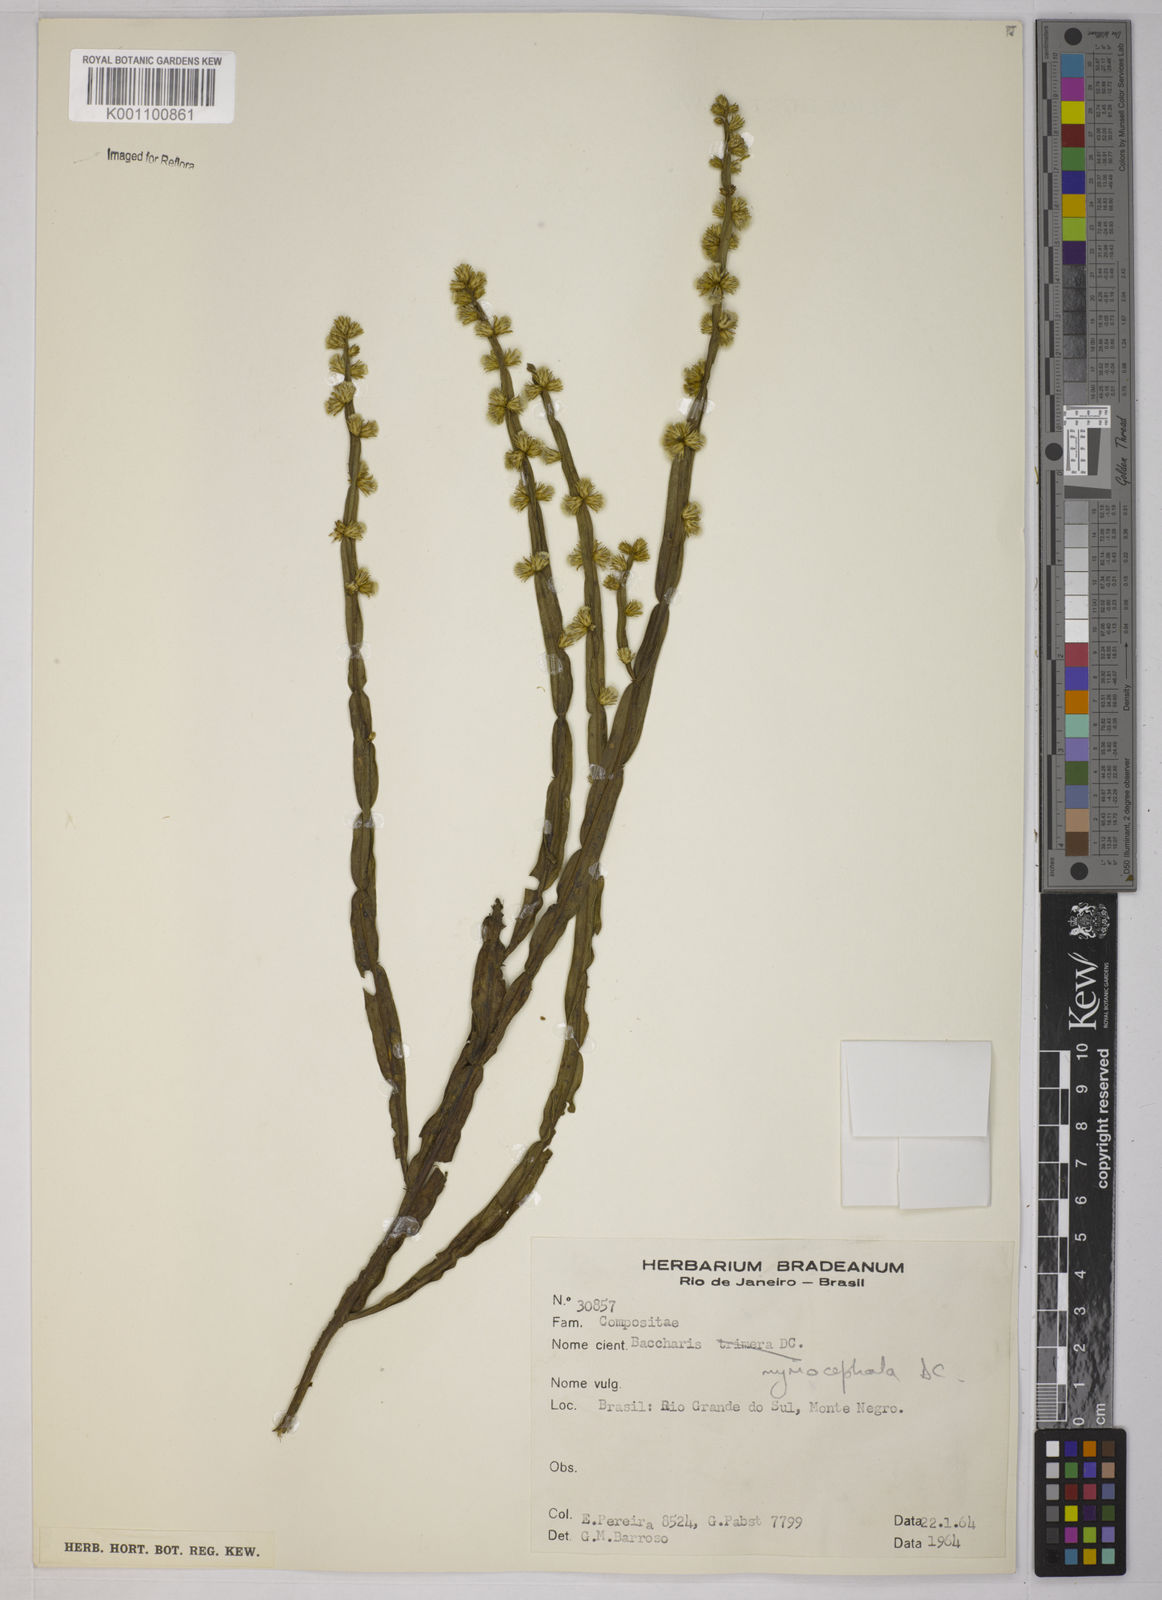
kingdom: Plantae
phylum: Tracheophyta
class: Magnoliopsida
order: Asterales
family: Asteraceae
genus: Baccharis
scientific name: Baccharis myriocephala
